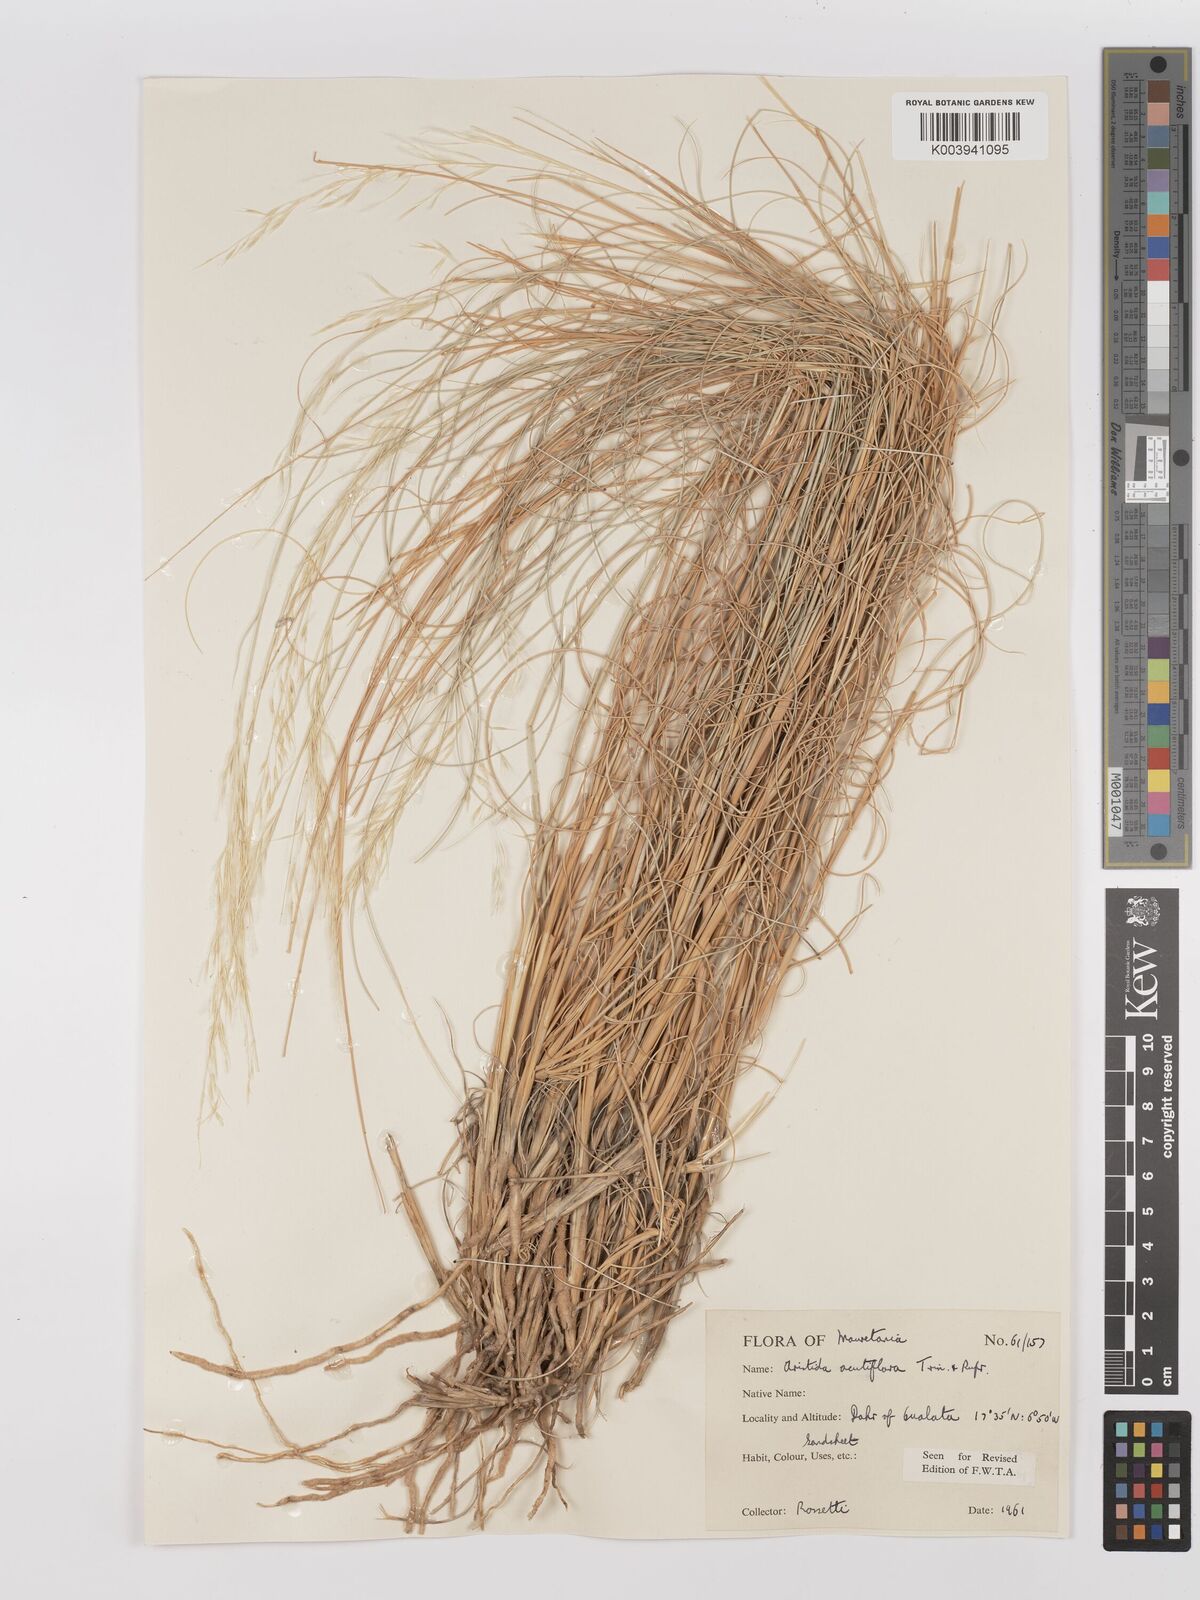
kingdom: Plantae
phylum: Tracheophyta
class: Liliopsida
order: Poales
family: Poaceae
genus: Stipagrostis
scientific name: Stipagrostis acutiflora
